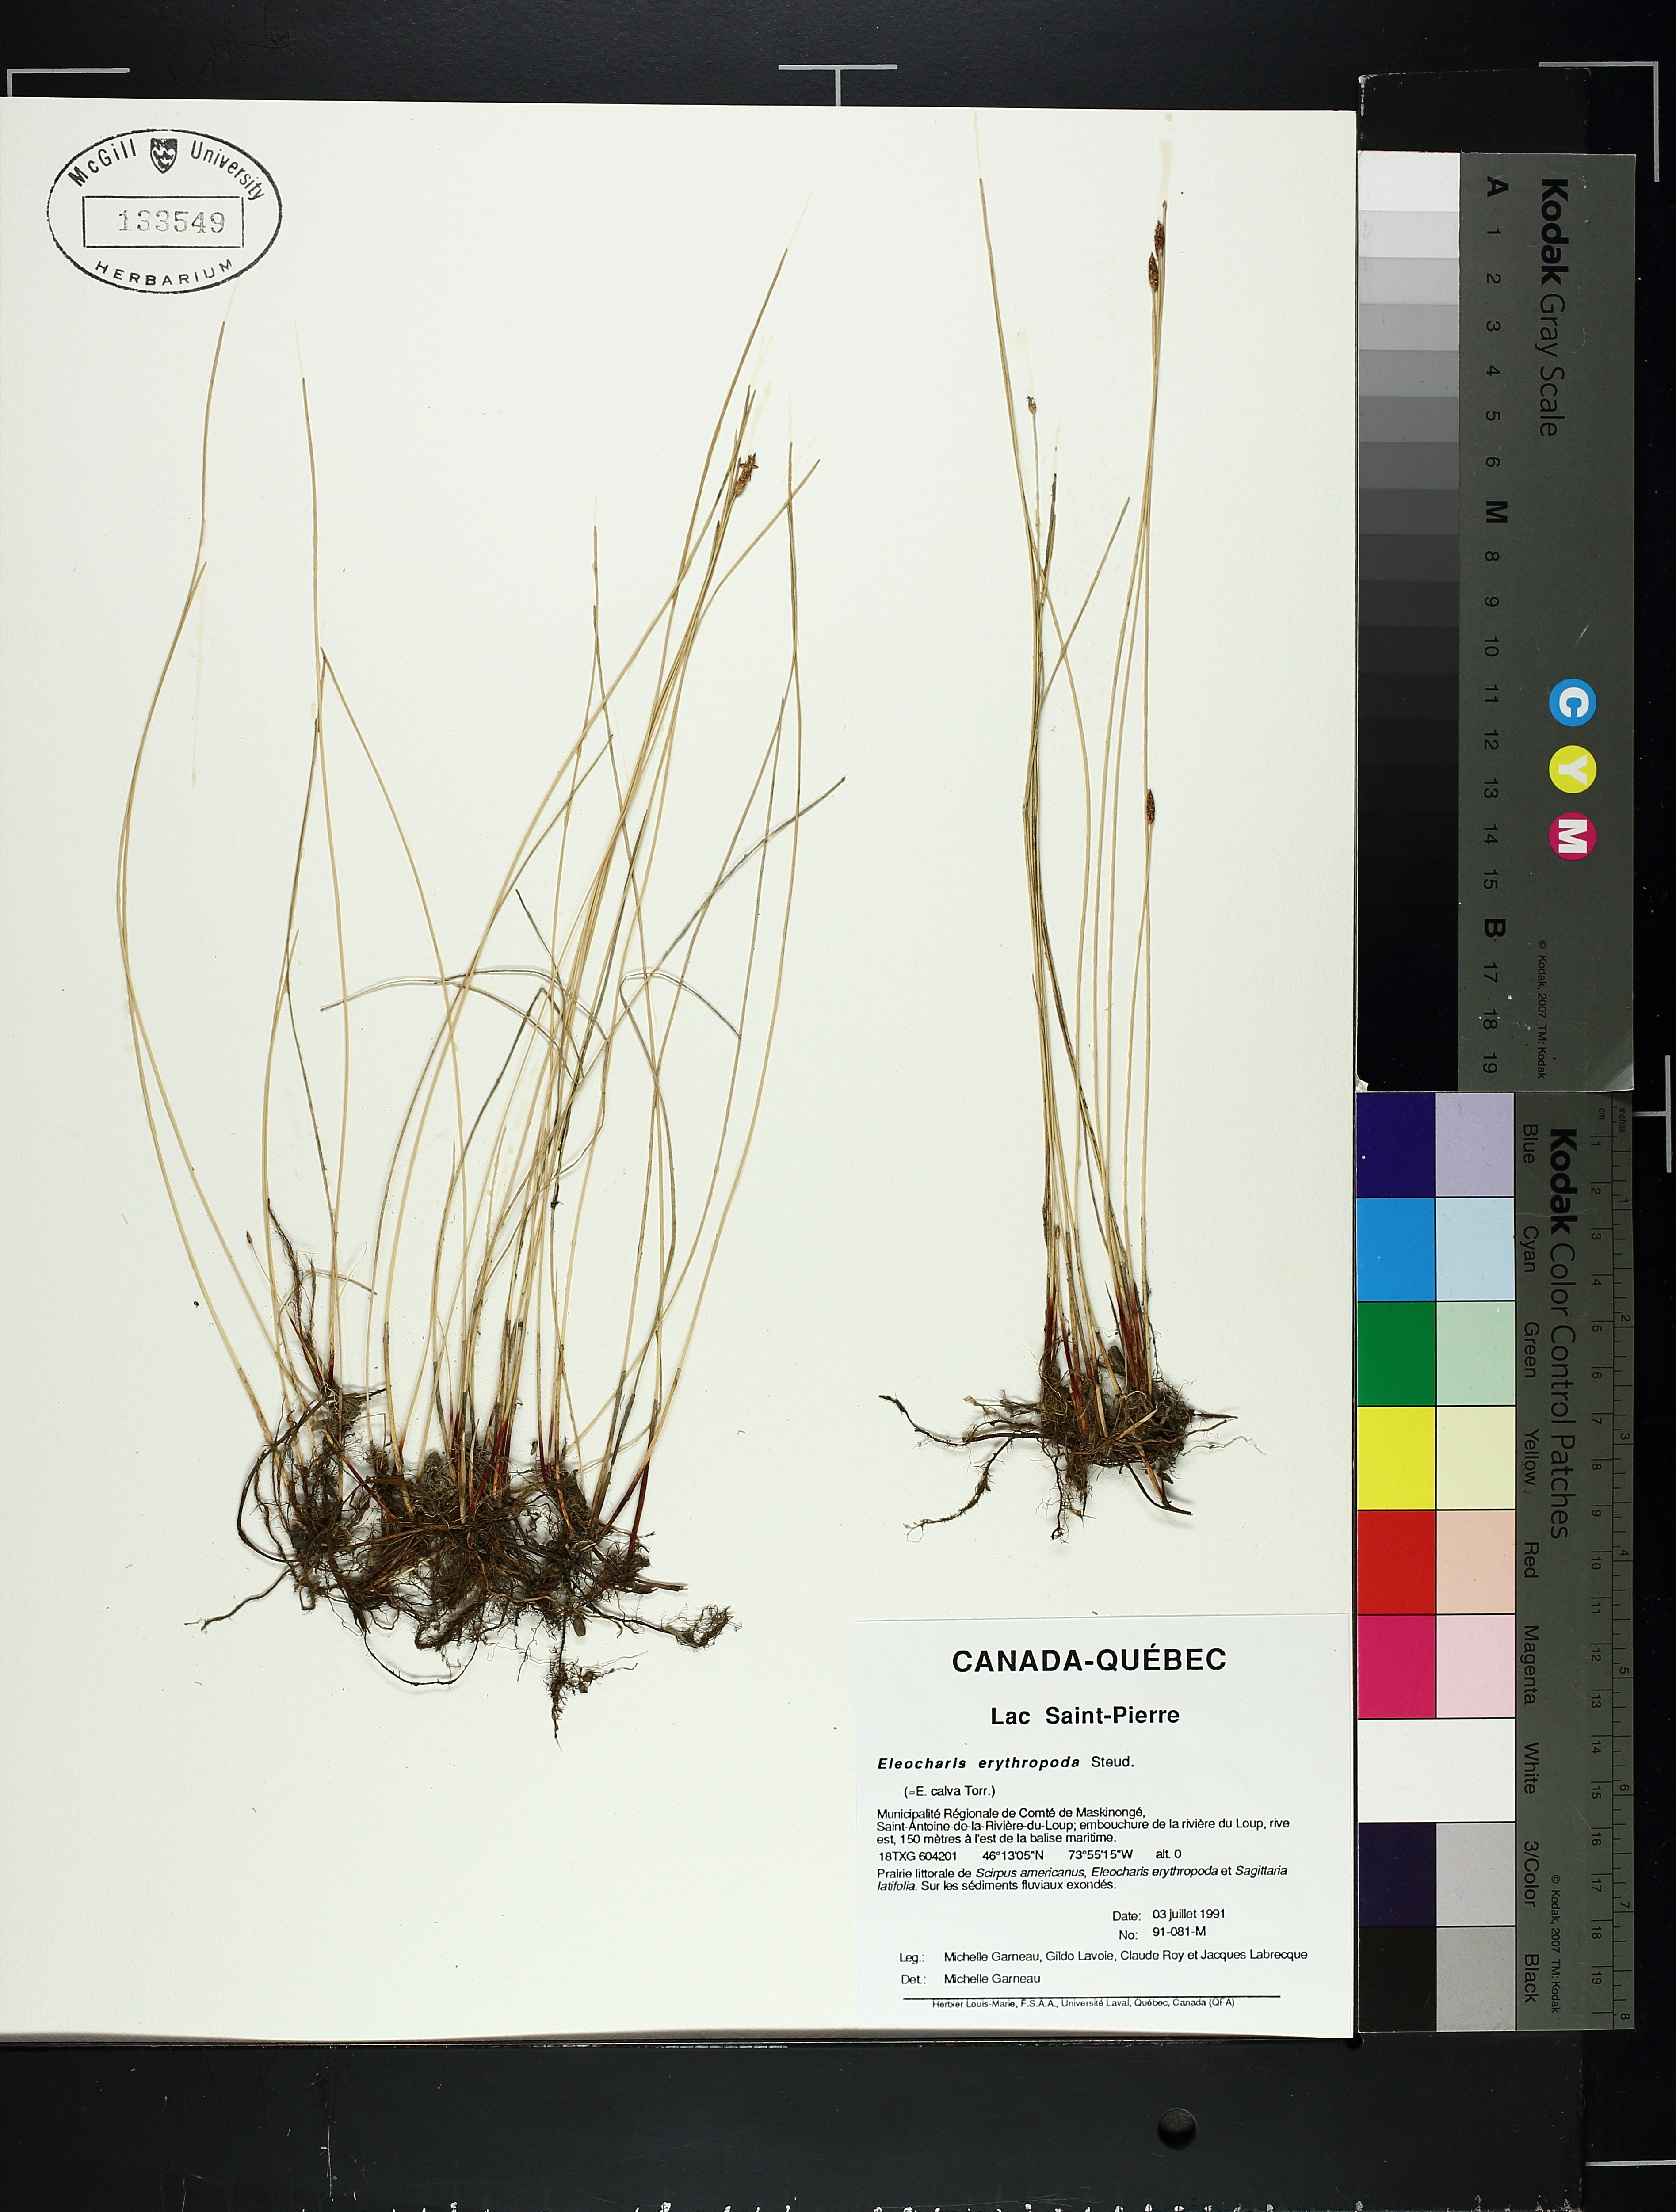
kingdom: Plantae
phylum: Tracheophyta
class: Liliopsida
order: Poales
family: Cyperaceae
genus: Eleocharis
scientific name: Eleocharis erythropoda
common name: Bald spikerush
